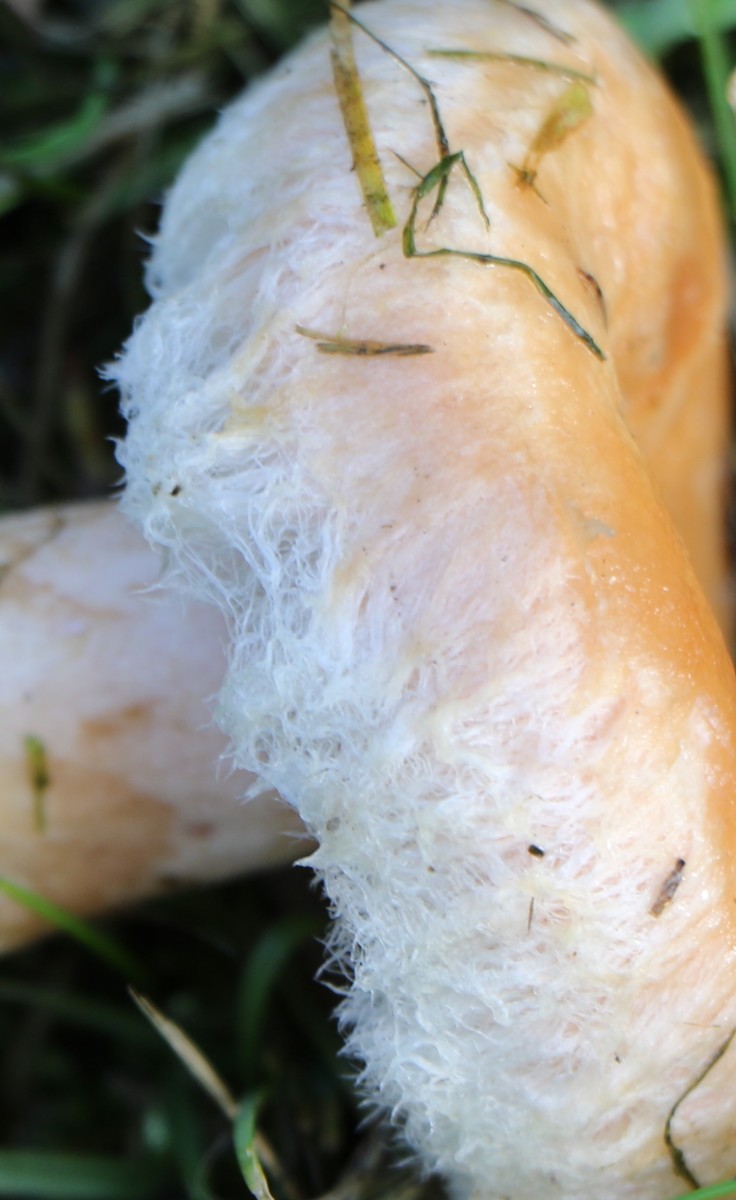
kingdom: Fungi
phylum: Basidiomycota
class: Agaricomycetes
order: Russulales
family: Russulaceae
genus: Lactarius
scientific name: Lactarius torminosus
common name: skægget mælkehat
